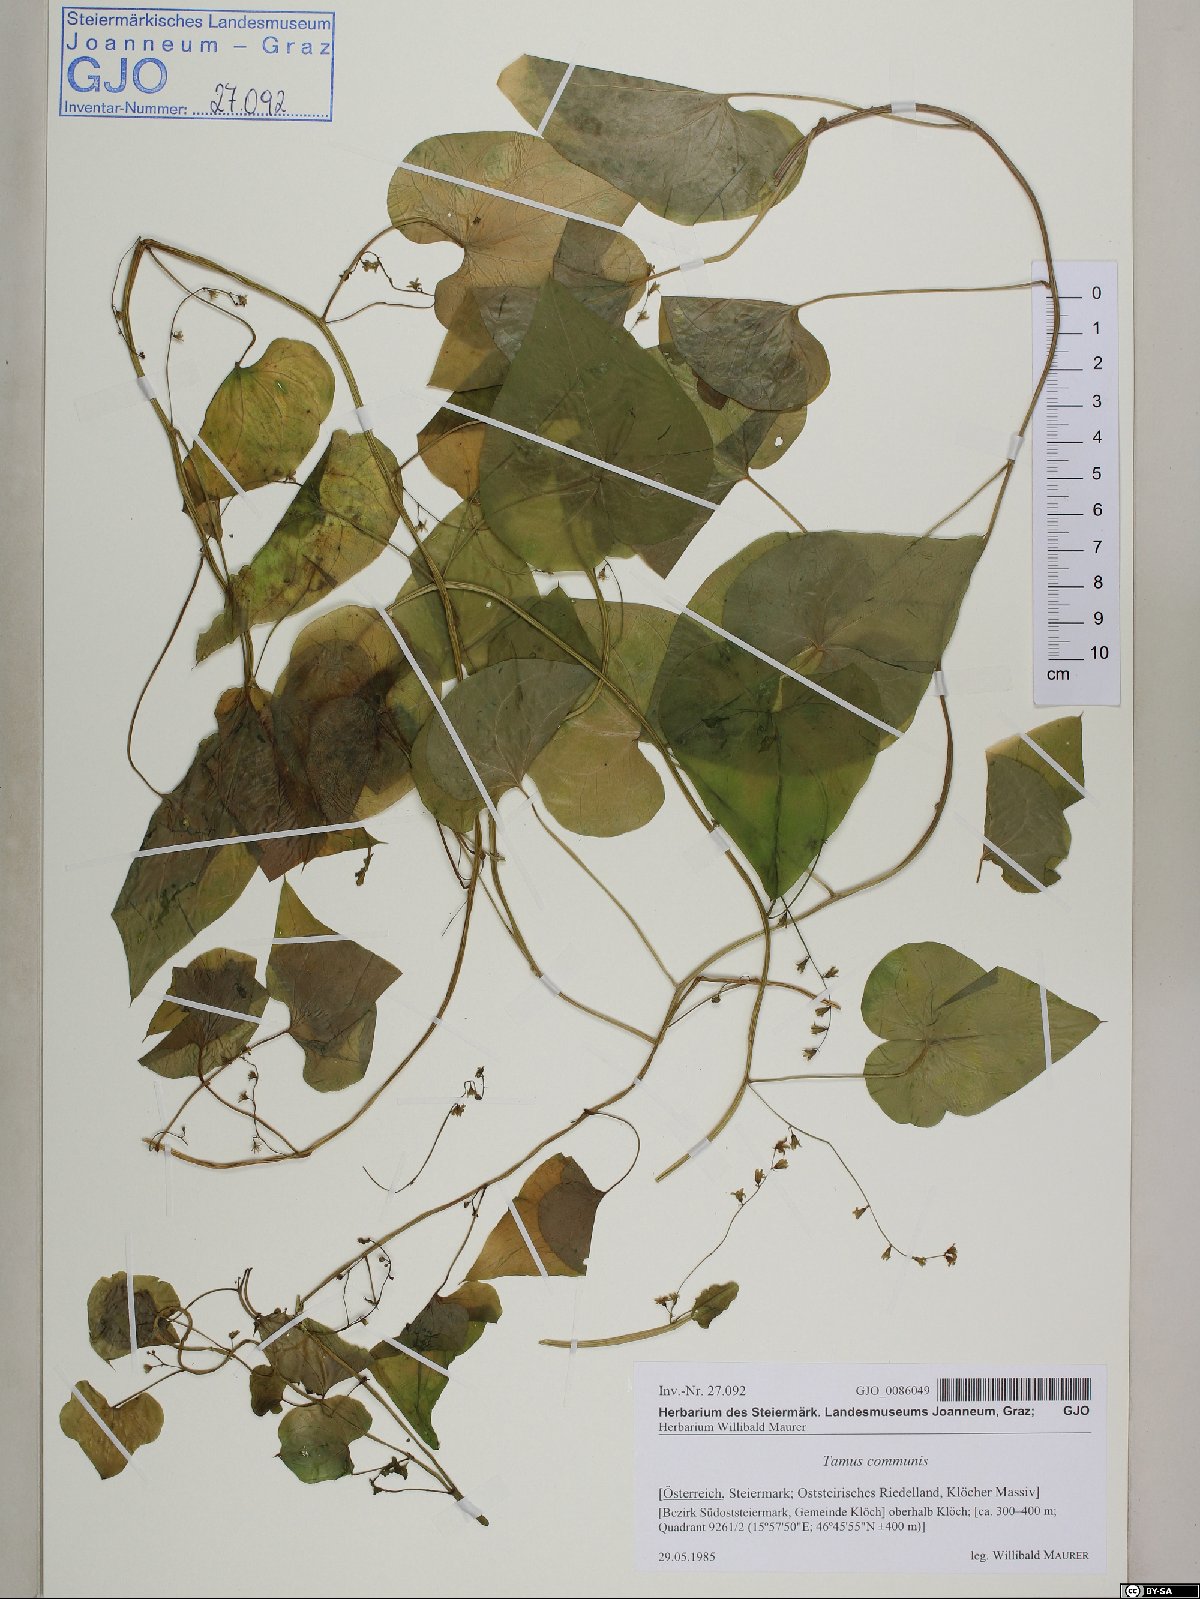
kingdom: Plantae
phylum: Tracheophyta
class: Liliopsida
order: Dioscoreales
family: Dioscoreaceae
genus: Dioscorea
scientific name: Dioscorea communis
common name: Black-bindweed
